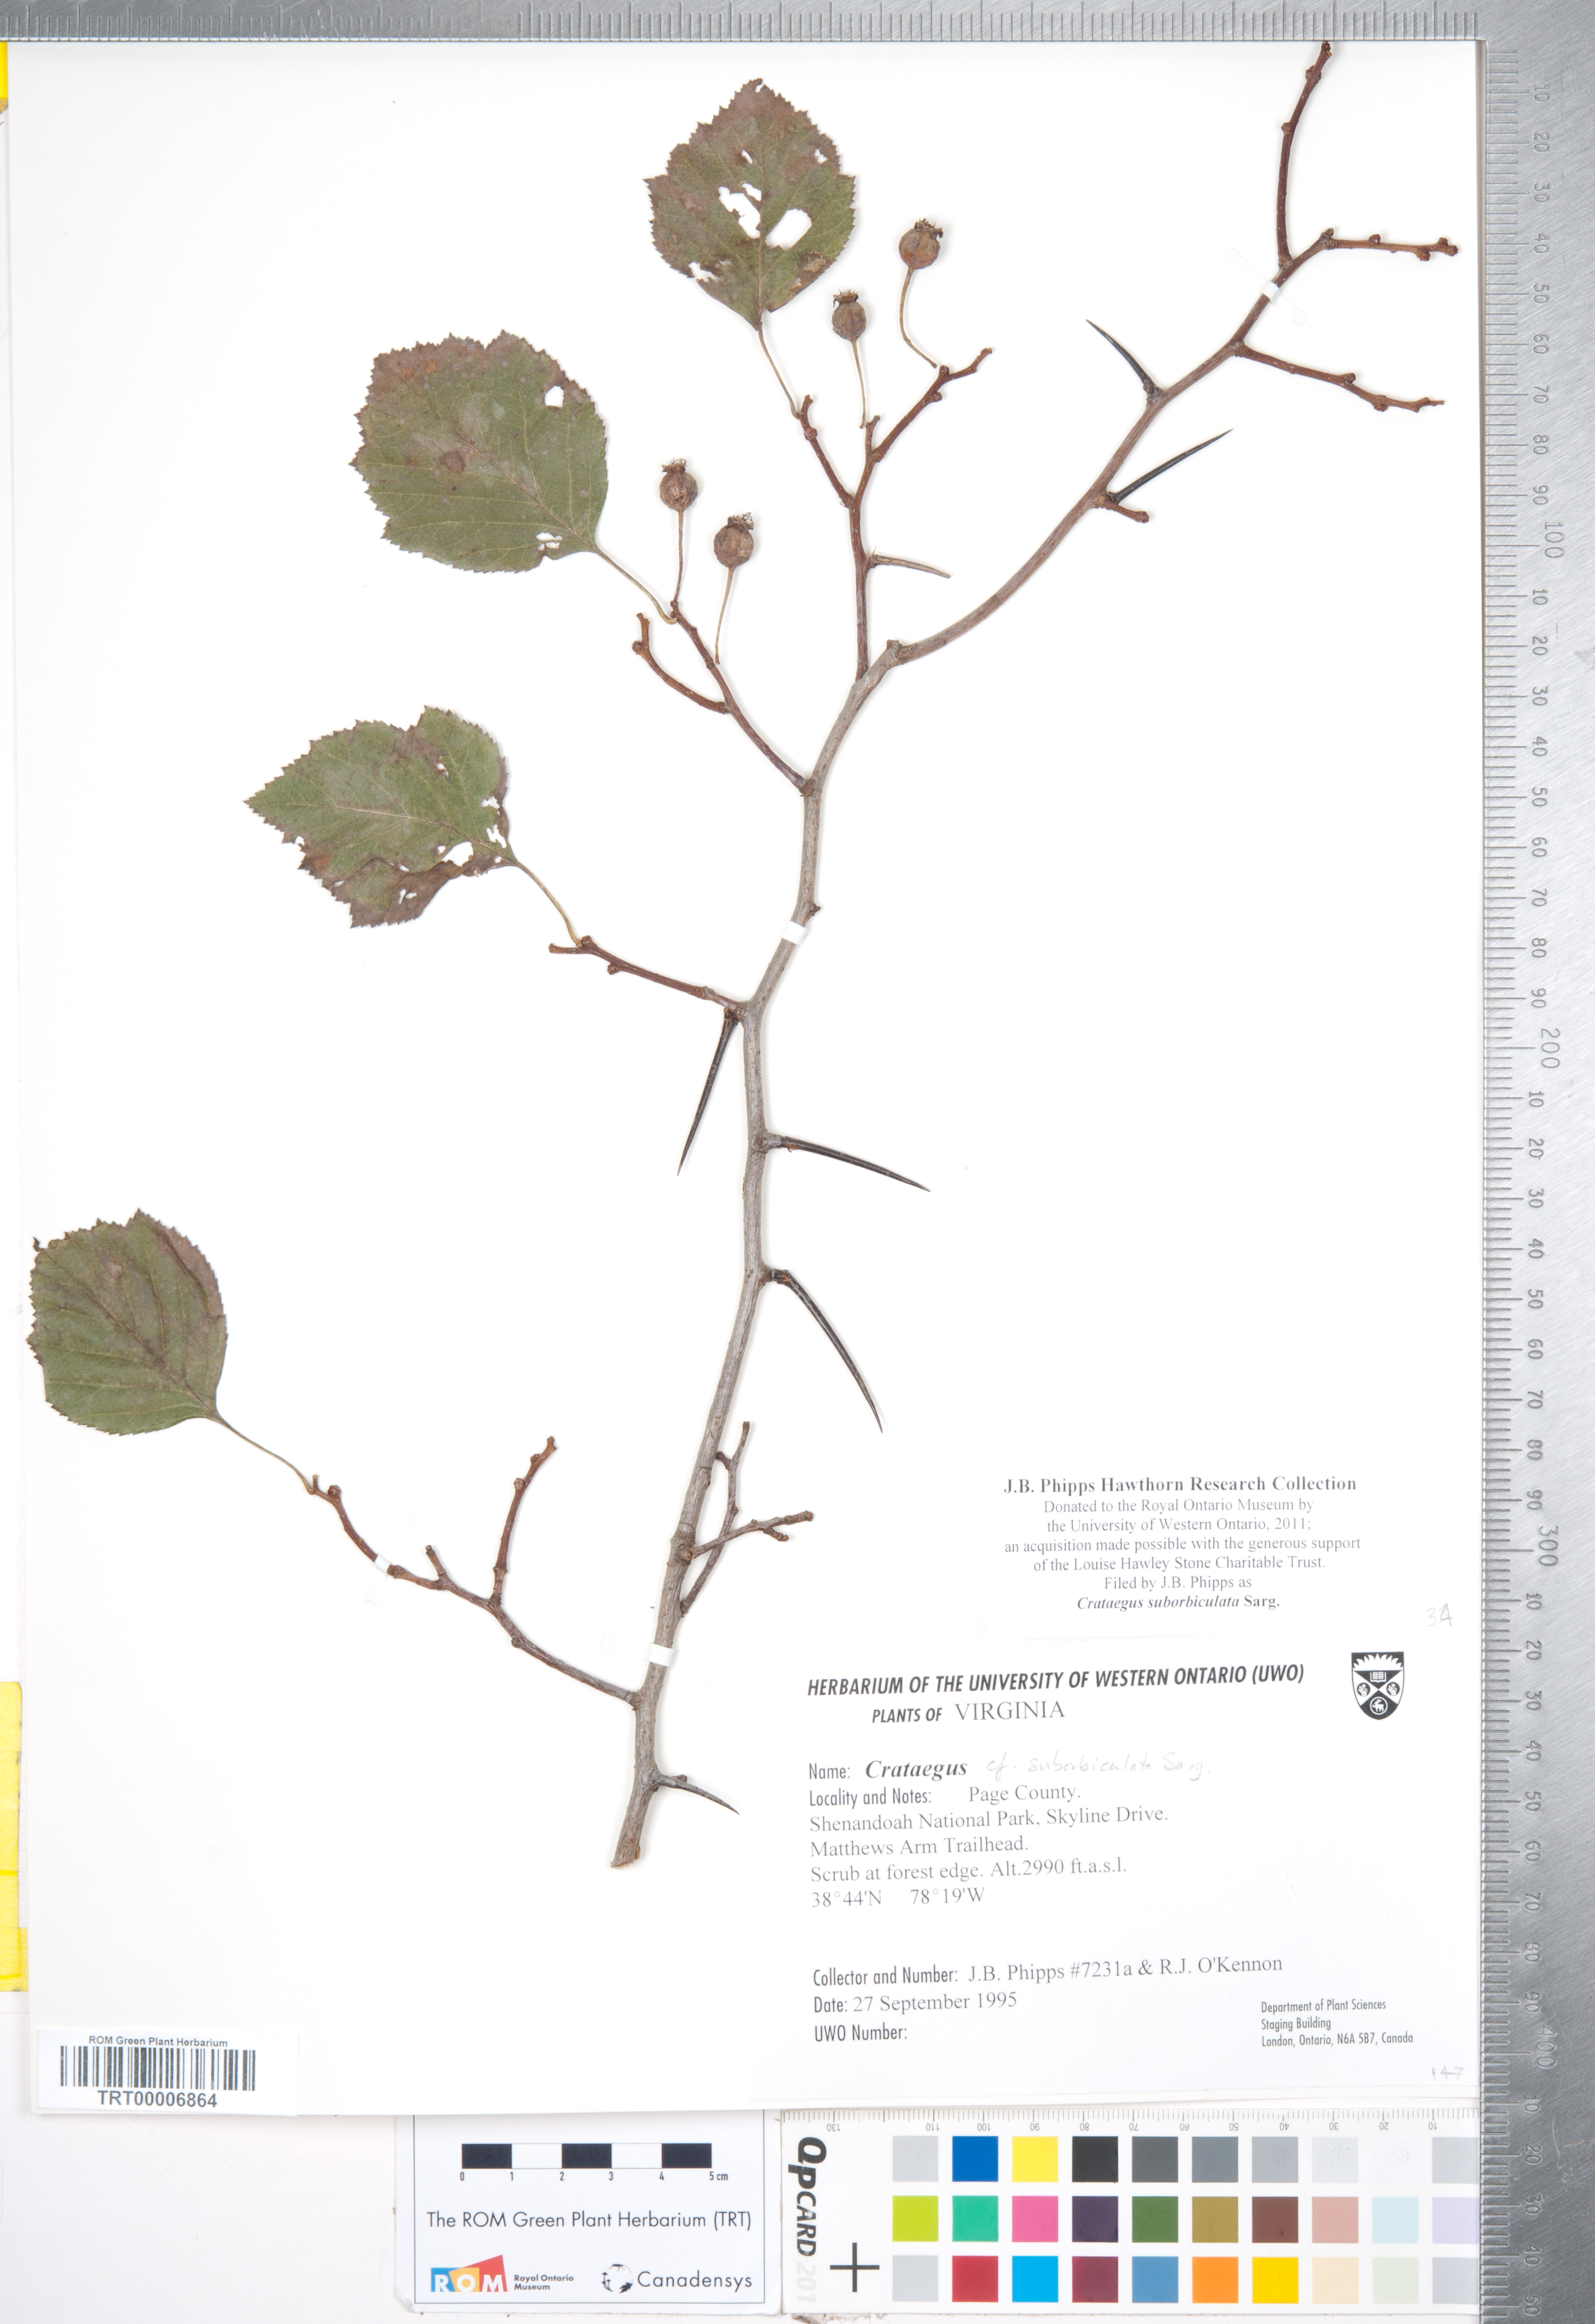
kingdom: Plantae
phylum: Tracheophyta
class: Magnoliopsida
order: Rosales
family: Rosaceae
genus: Crataegus
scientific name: Crataegus suborbiculata
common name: Caughnawaga hawthorn
